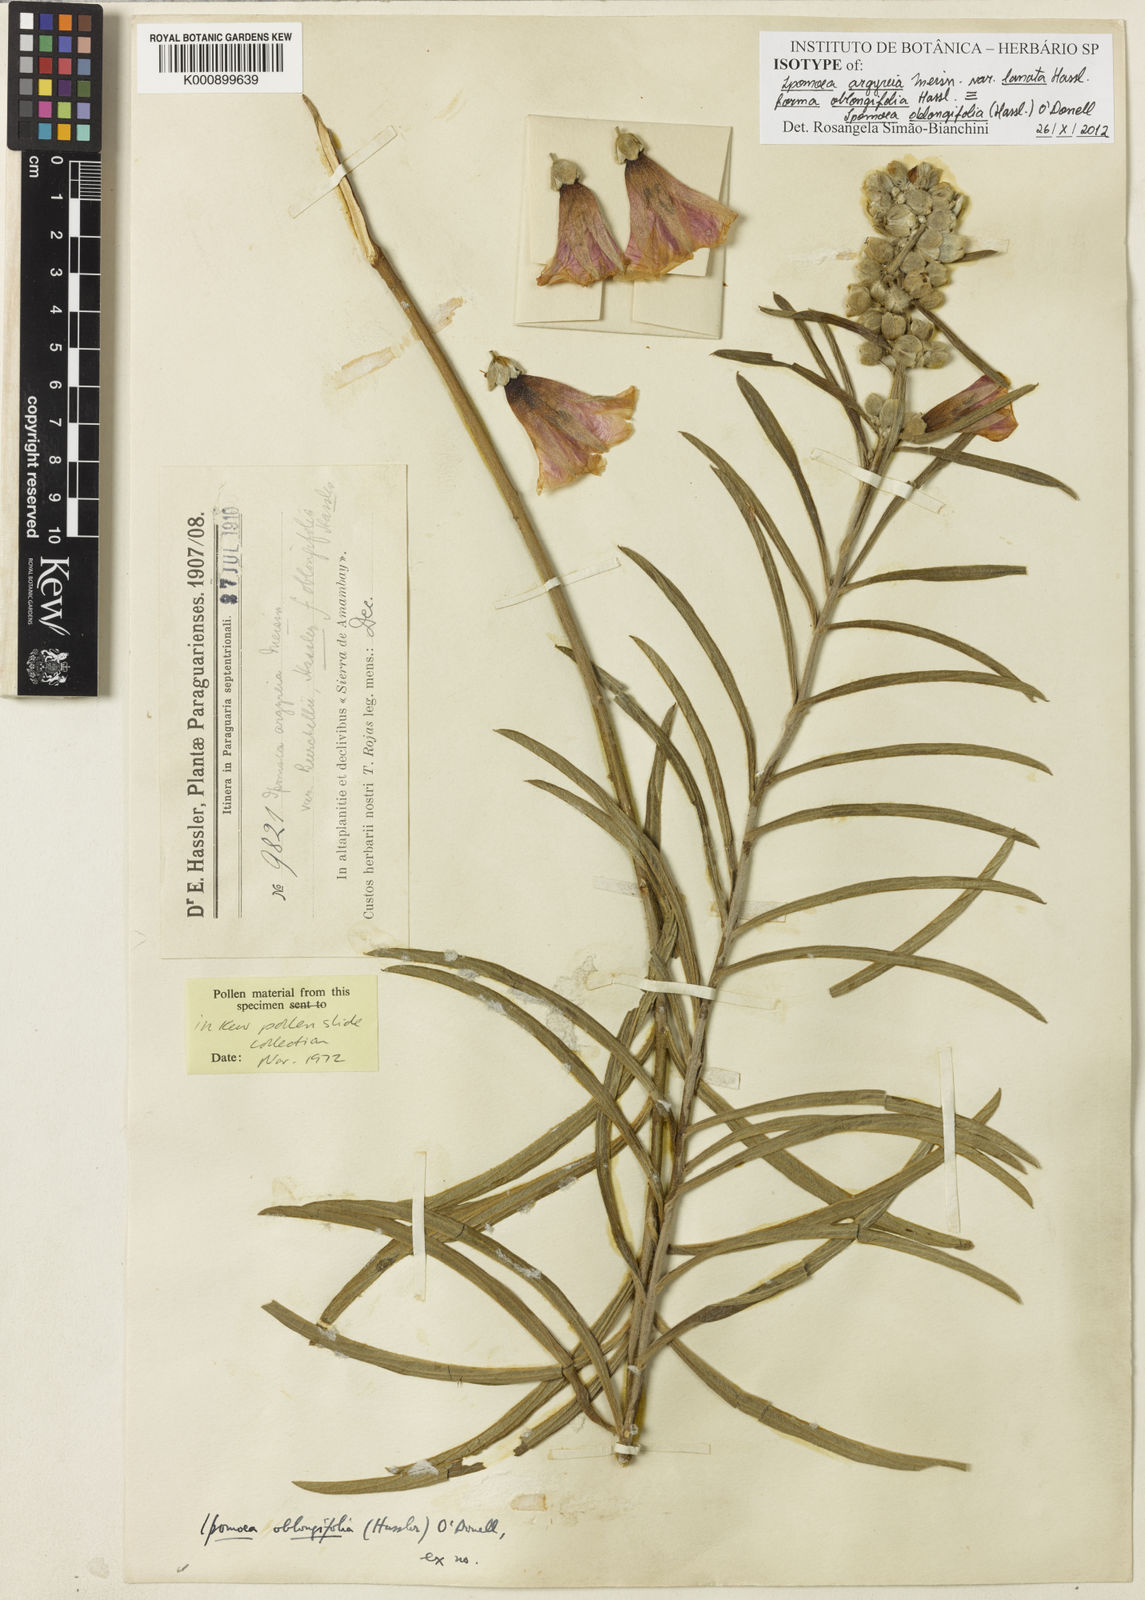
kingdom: Plantae
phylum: Tracheophyta
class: Magnoliopsida
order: Solanales
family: Convolvulaceae
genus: Ipomoea
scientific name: Ipomoea oblongifolia
